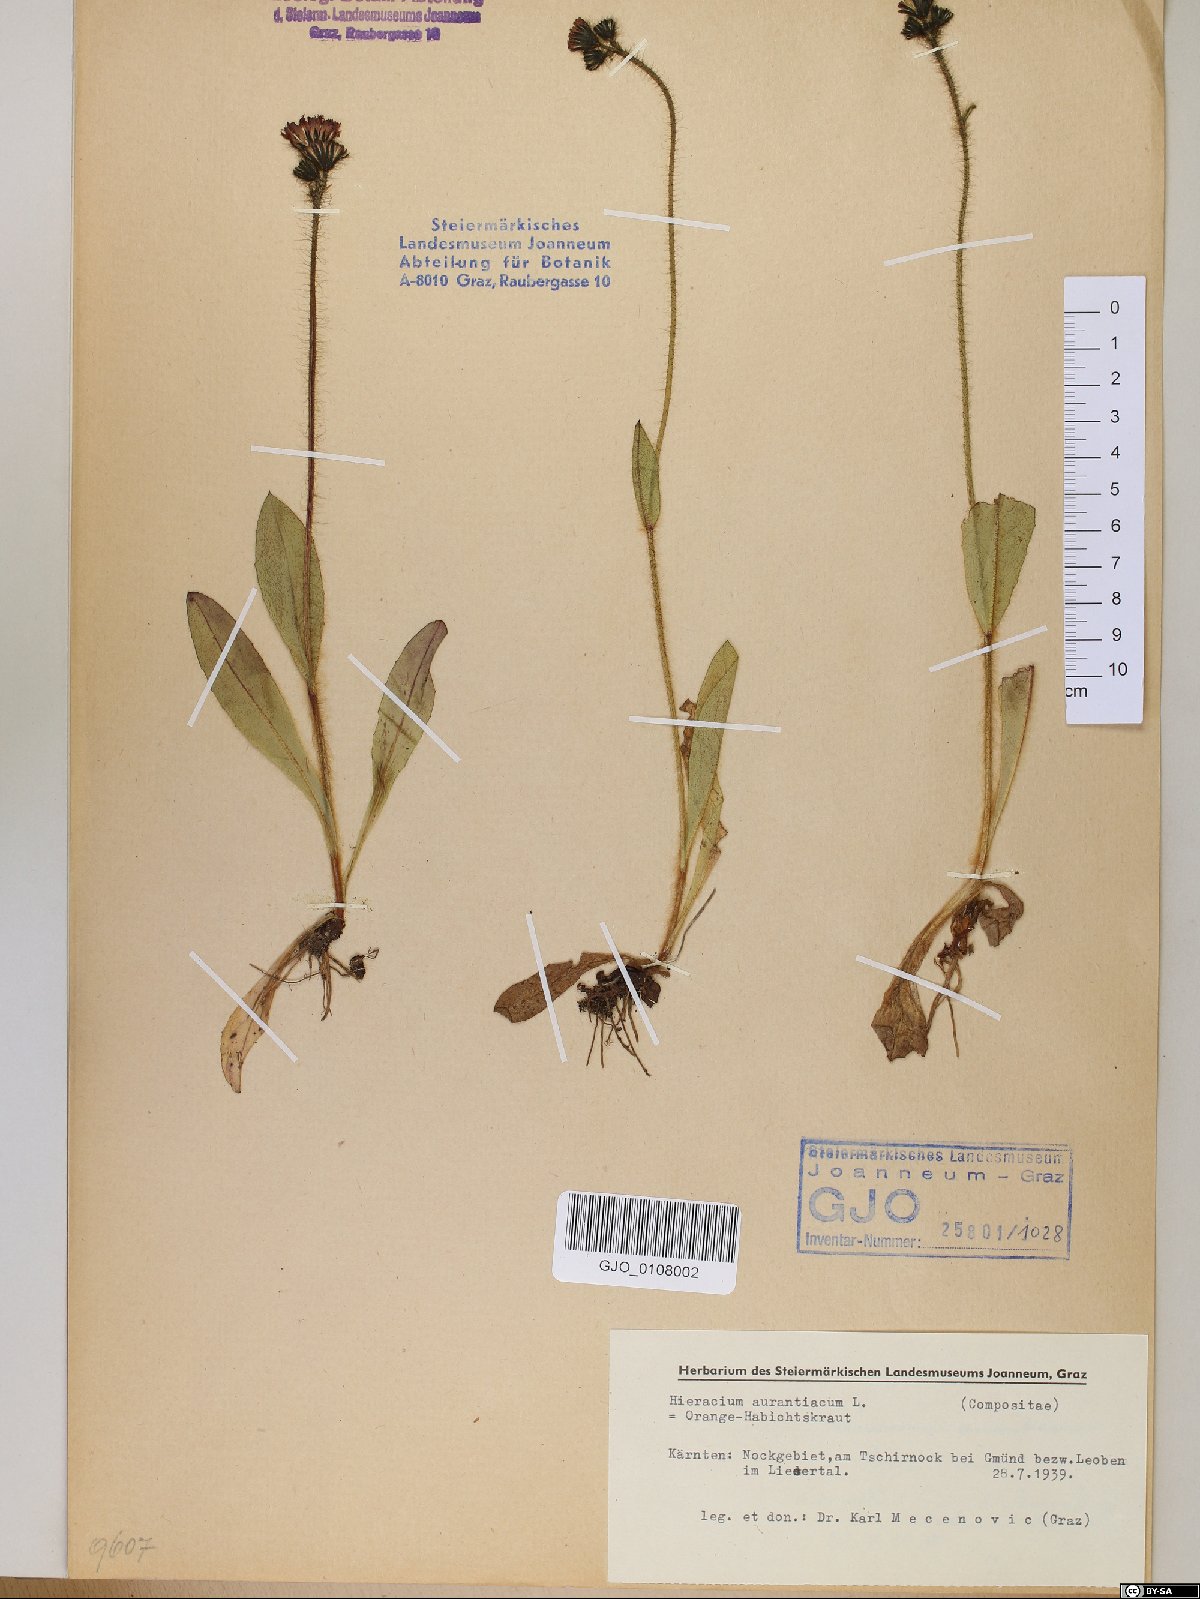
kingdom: Plantae
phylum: Tracheophyta
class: Magnoliopsida
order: Asterales
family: Asteraceae
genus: Pilosella
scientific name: Pilosella aurantiaca
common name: Fox-and-cubs
